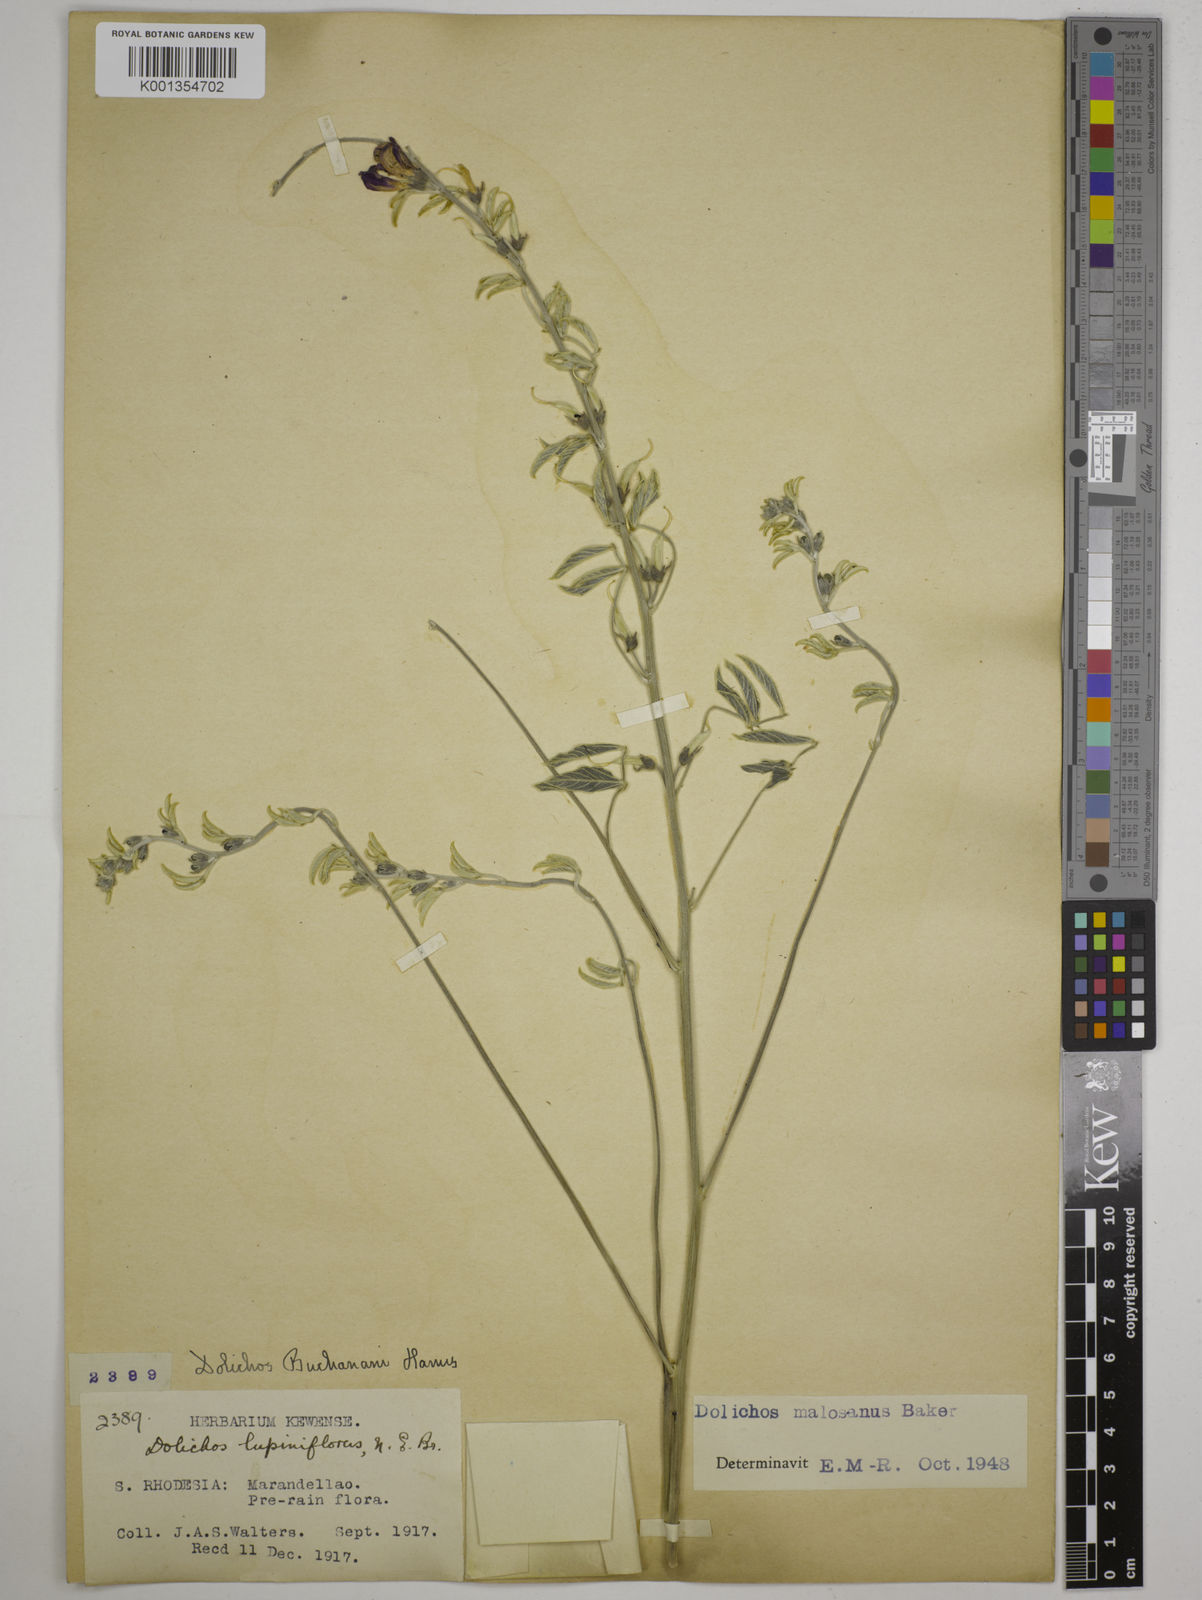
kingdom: Plantae
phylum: Tracheophyta
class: Magnoliopsida
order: Fabales
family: Fabaceae
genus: Dolichos
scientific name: Dolichos kilimandscharicus
